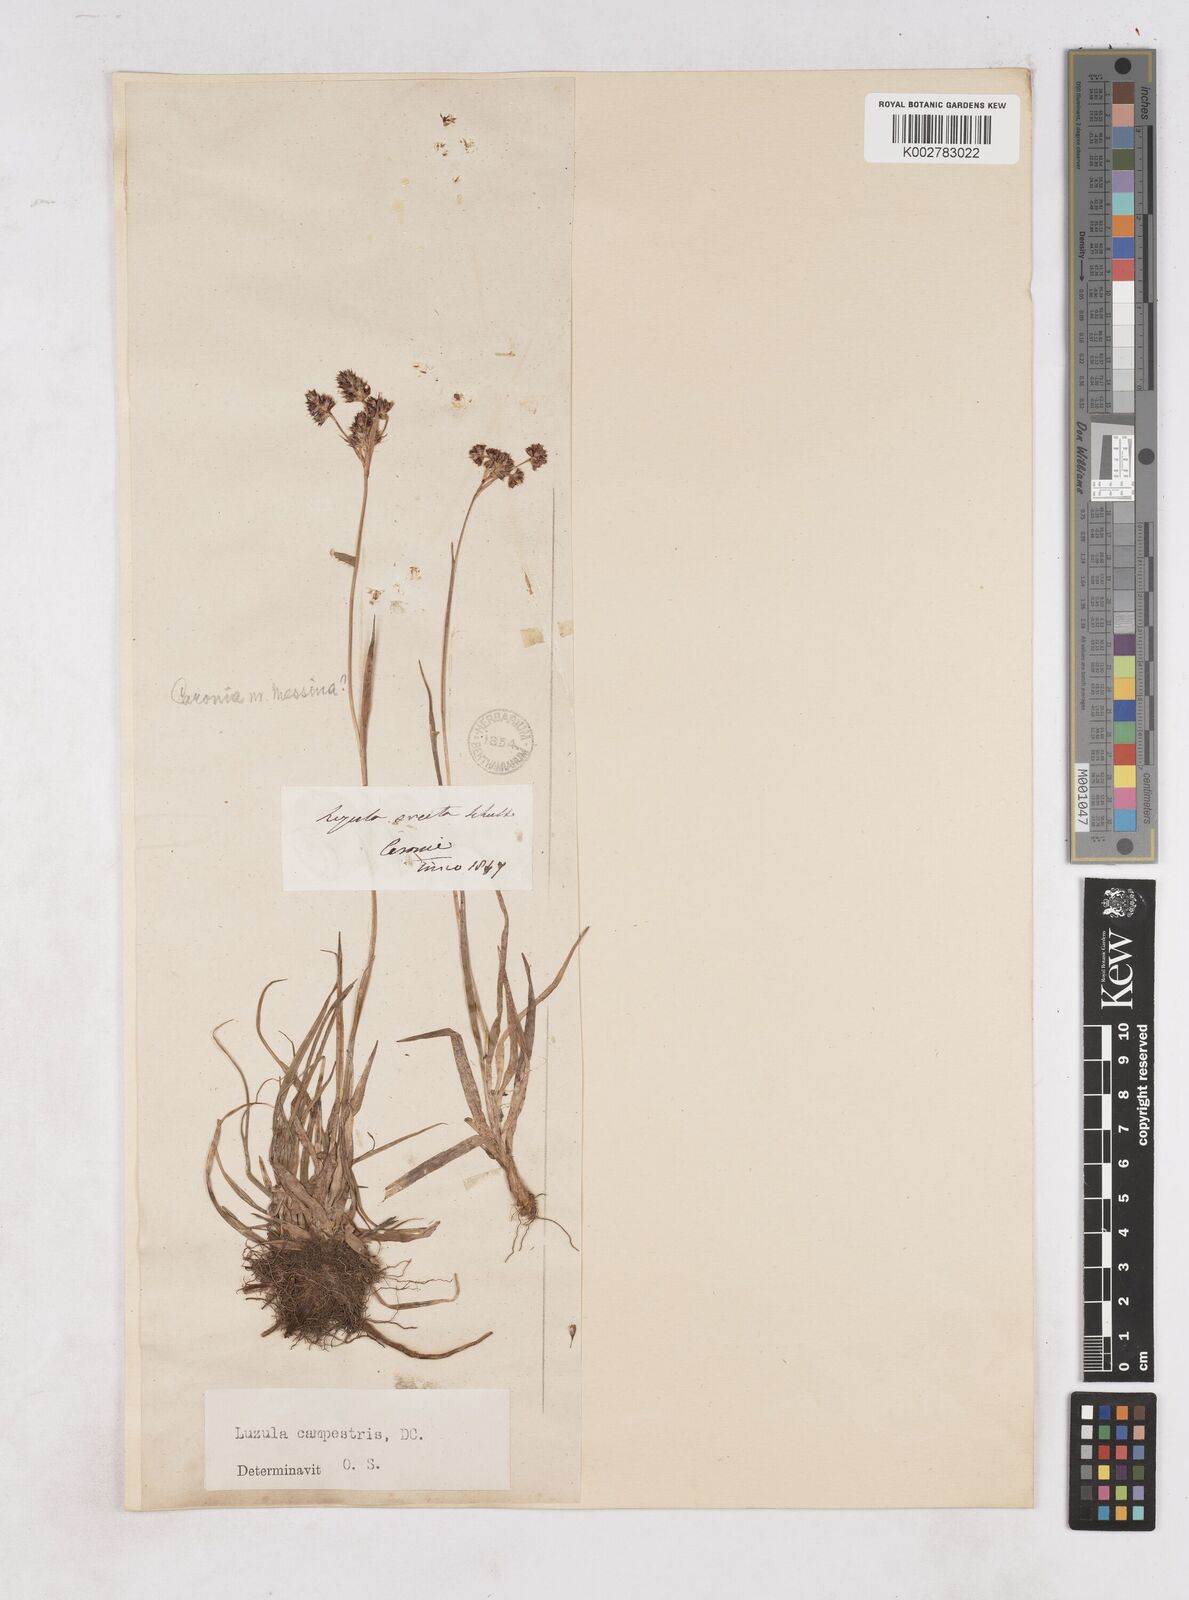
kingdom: Plantae
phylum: Tracheophyta
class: Liliopsida
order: Poales
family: Juncaceae
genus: Luzula
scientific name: Luzula campestris
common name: Field wood-rush
